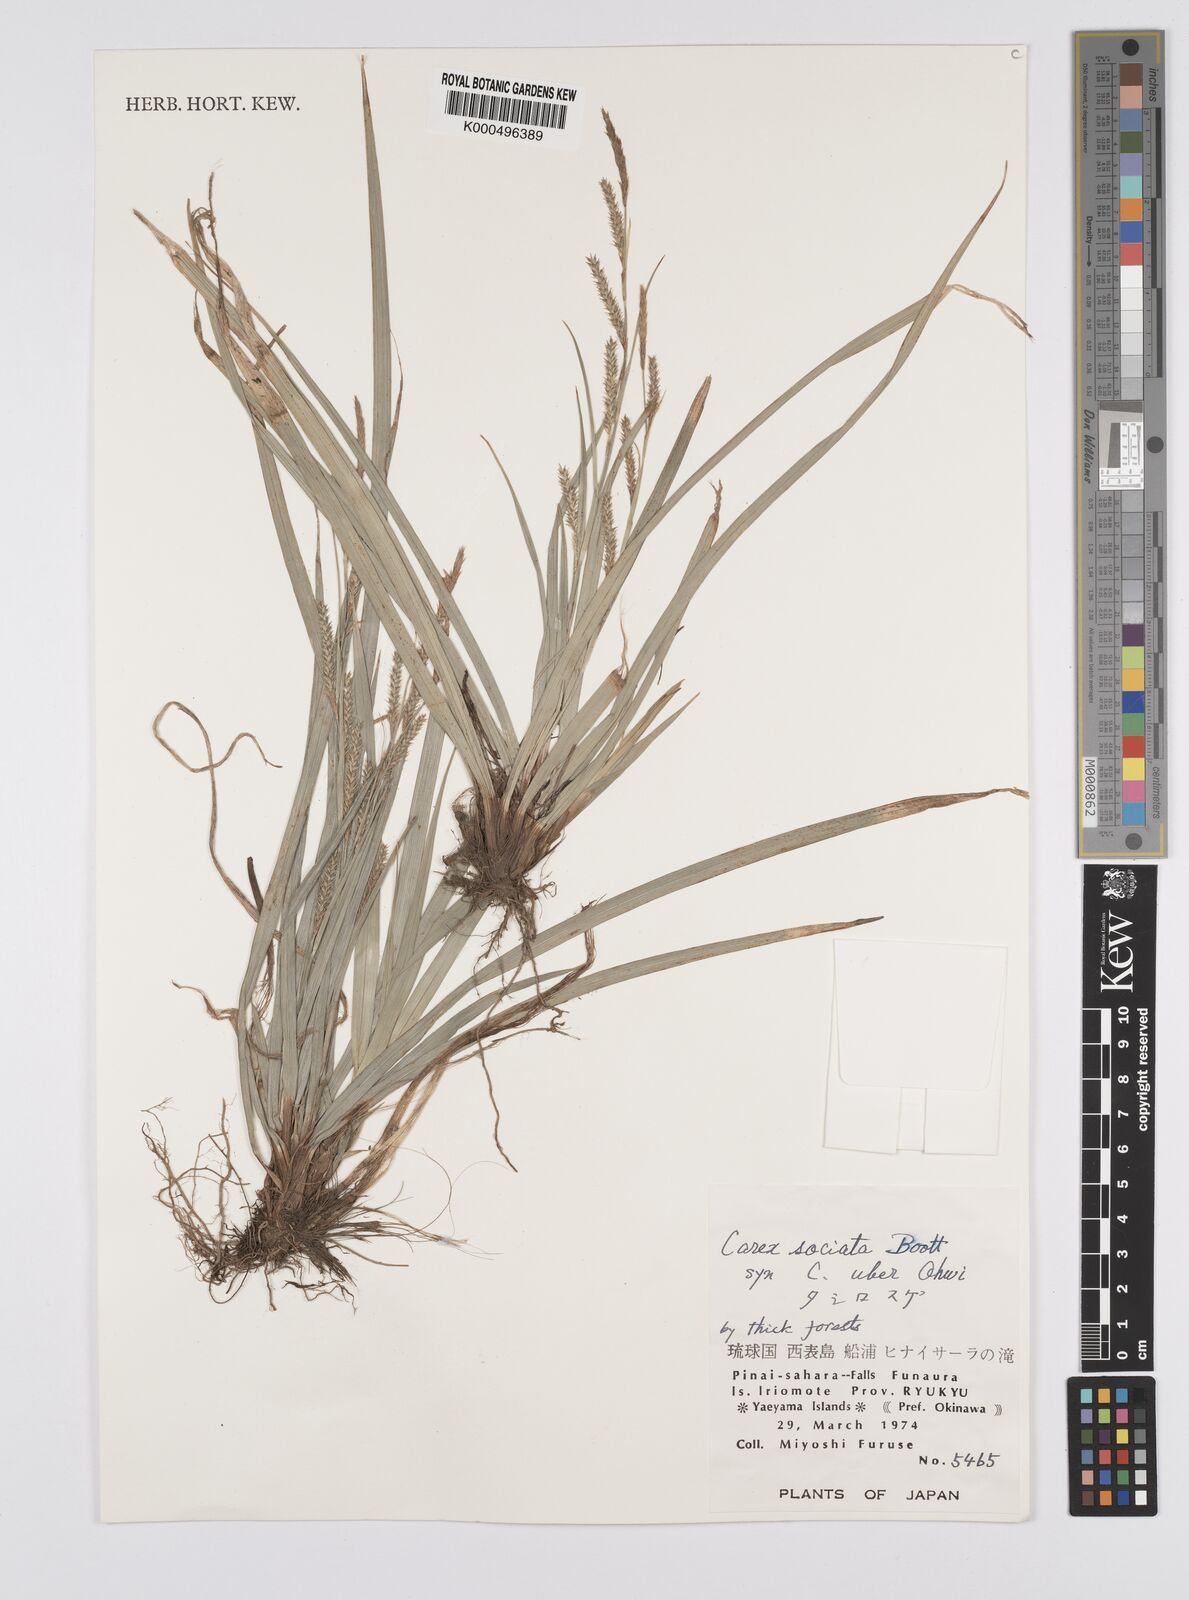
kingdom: Plantae
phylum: Tracheophyta
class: Liliopsida
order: Poales
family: Cyperaceae
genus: Carex
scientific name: Carex chinensis
